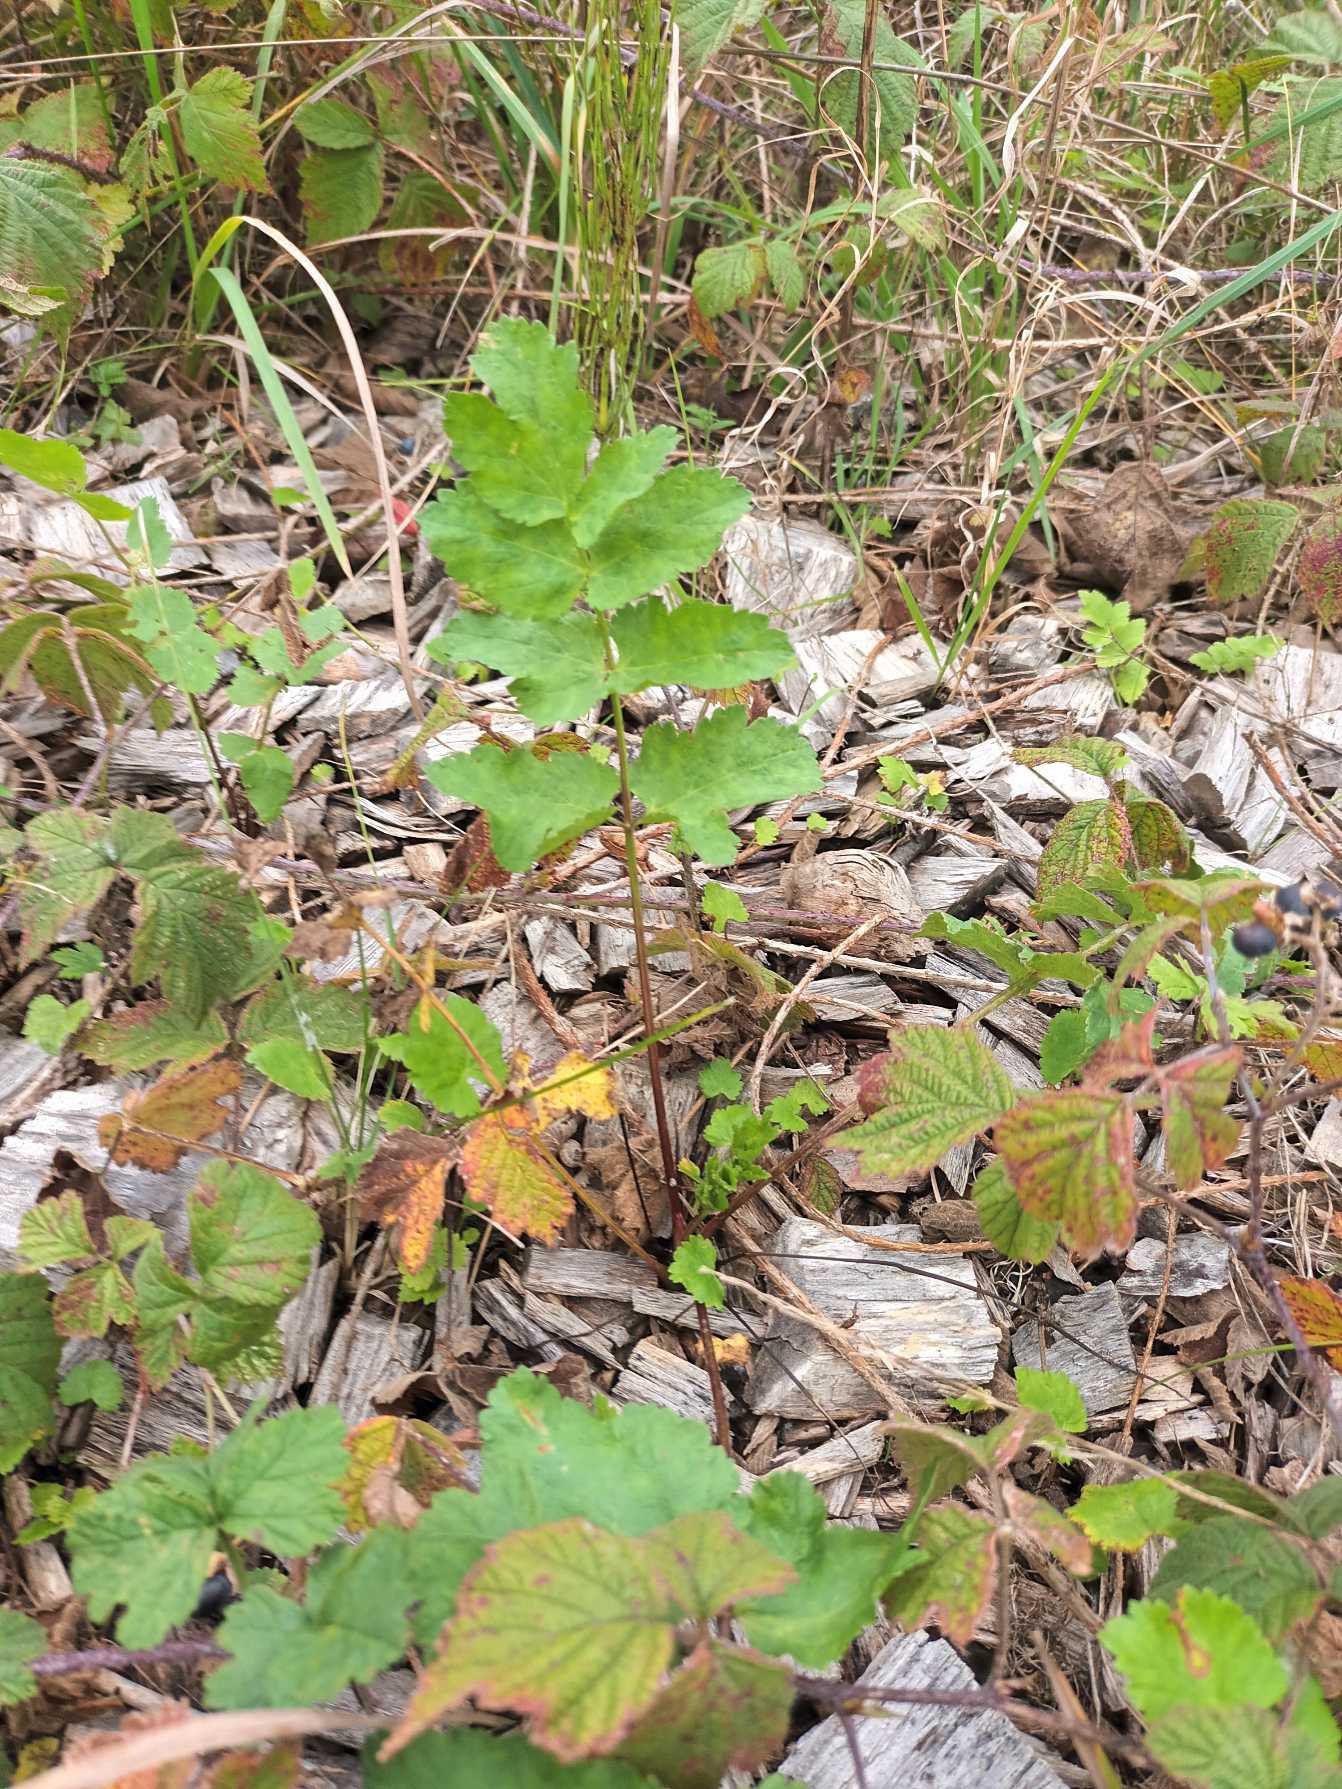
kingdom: Plantae
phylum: Tracheophyta
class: Magnoliopsida
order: Apiales
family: Apiaceae
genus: Pastinaca
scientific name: Pastinaca sativa
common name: Pastinak
